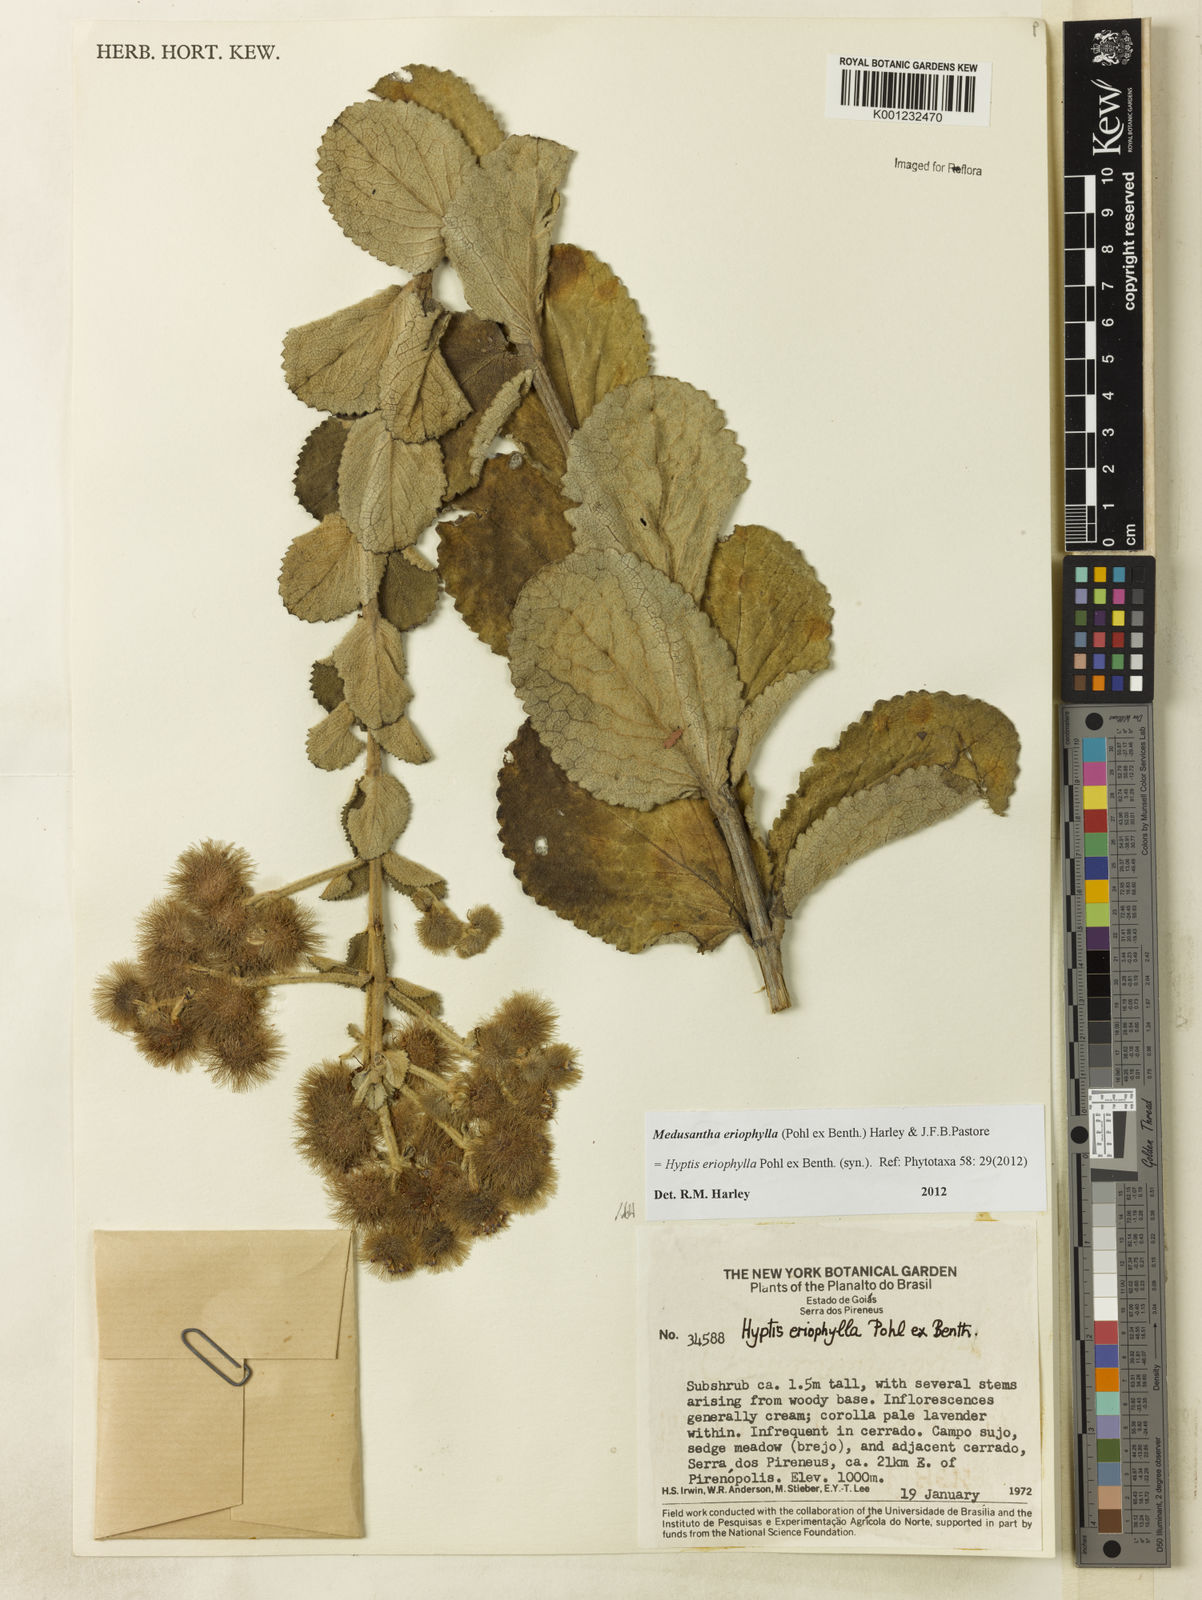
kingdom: Plantae
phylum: Tracheophyta
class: Magnoliopsida
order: Lamiales
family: Lamiaceae
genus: Medusantha
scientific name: Medusantha eriophylla
